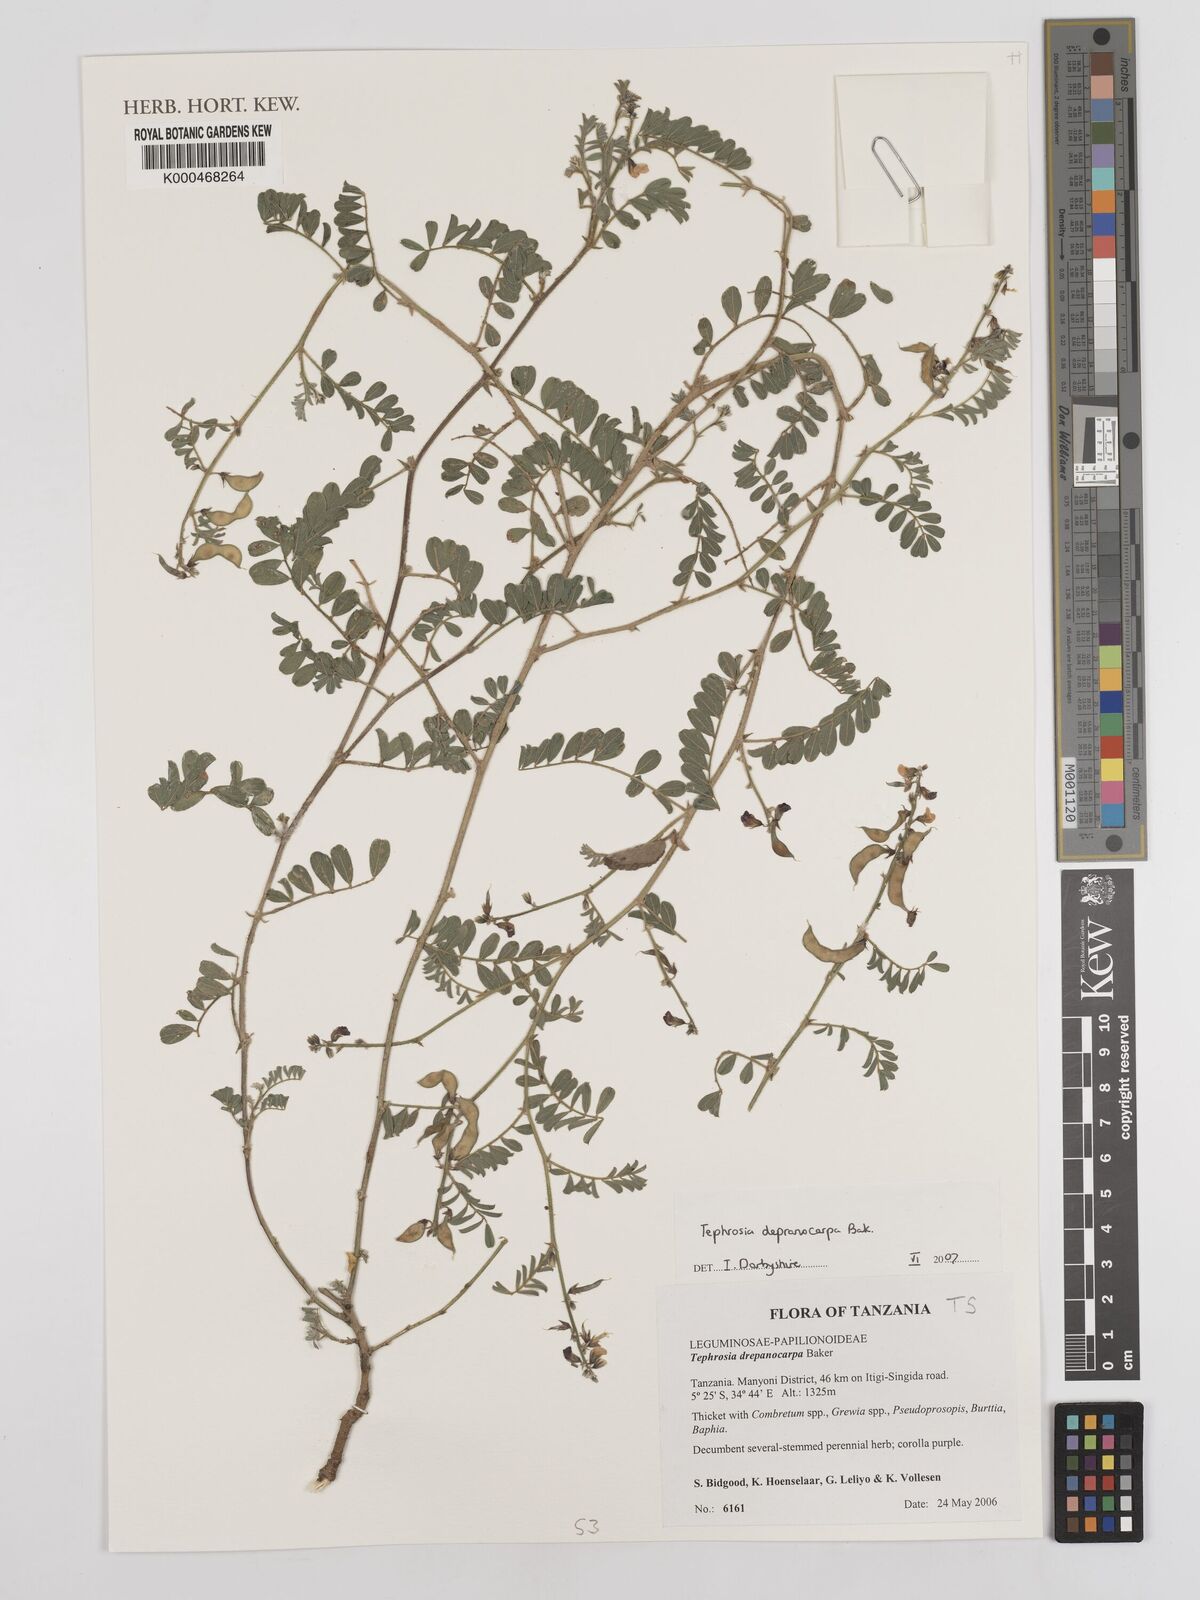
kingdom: Plantae
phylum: Tracheophyta
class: Magnoliopsida
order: Fabales
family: Fabaceae
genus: Tephrosia
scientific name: Tephrosia drepanocarpa
